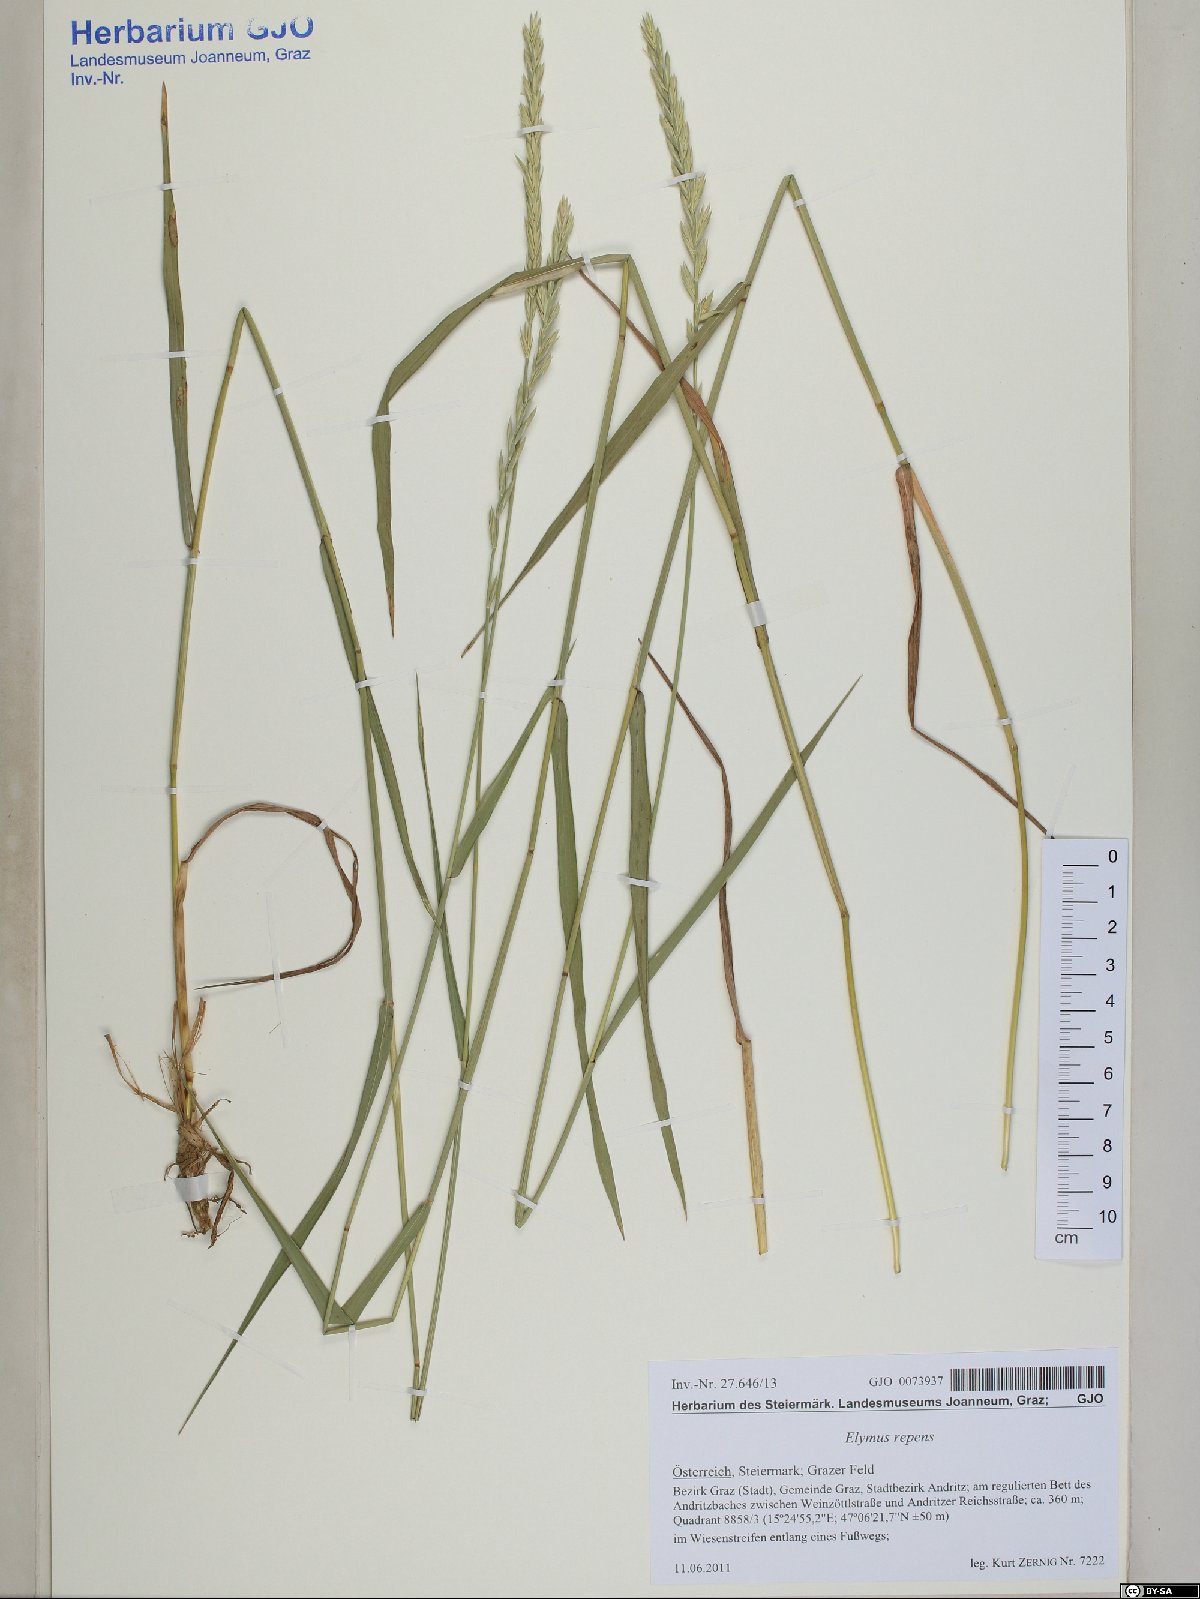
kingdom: Plantae
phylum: Tracheophyta
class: Liliopsida
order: Poales
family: Poaceae
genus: Elymus
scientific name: Elymus repens
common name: Quackgrass
